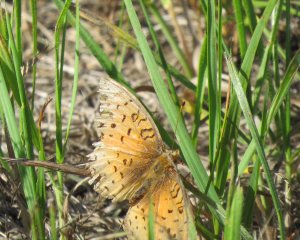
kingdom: Animalia
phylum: Arthropoda
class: Insecta
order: Lepidoptera
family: Nymphalidae
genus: Speyeria
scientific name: Speyeria cybele
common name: Great Spangled Fritillary
